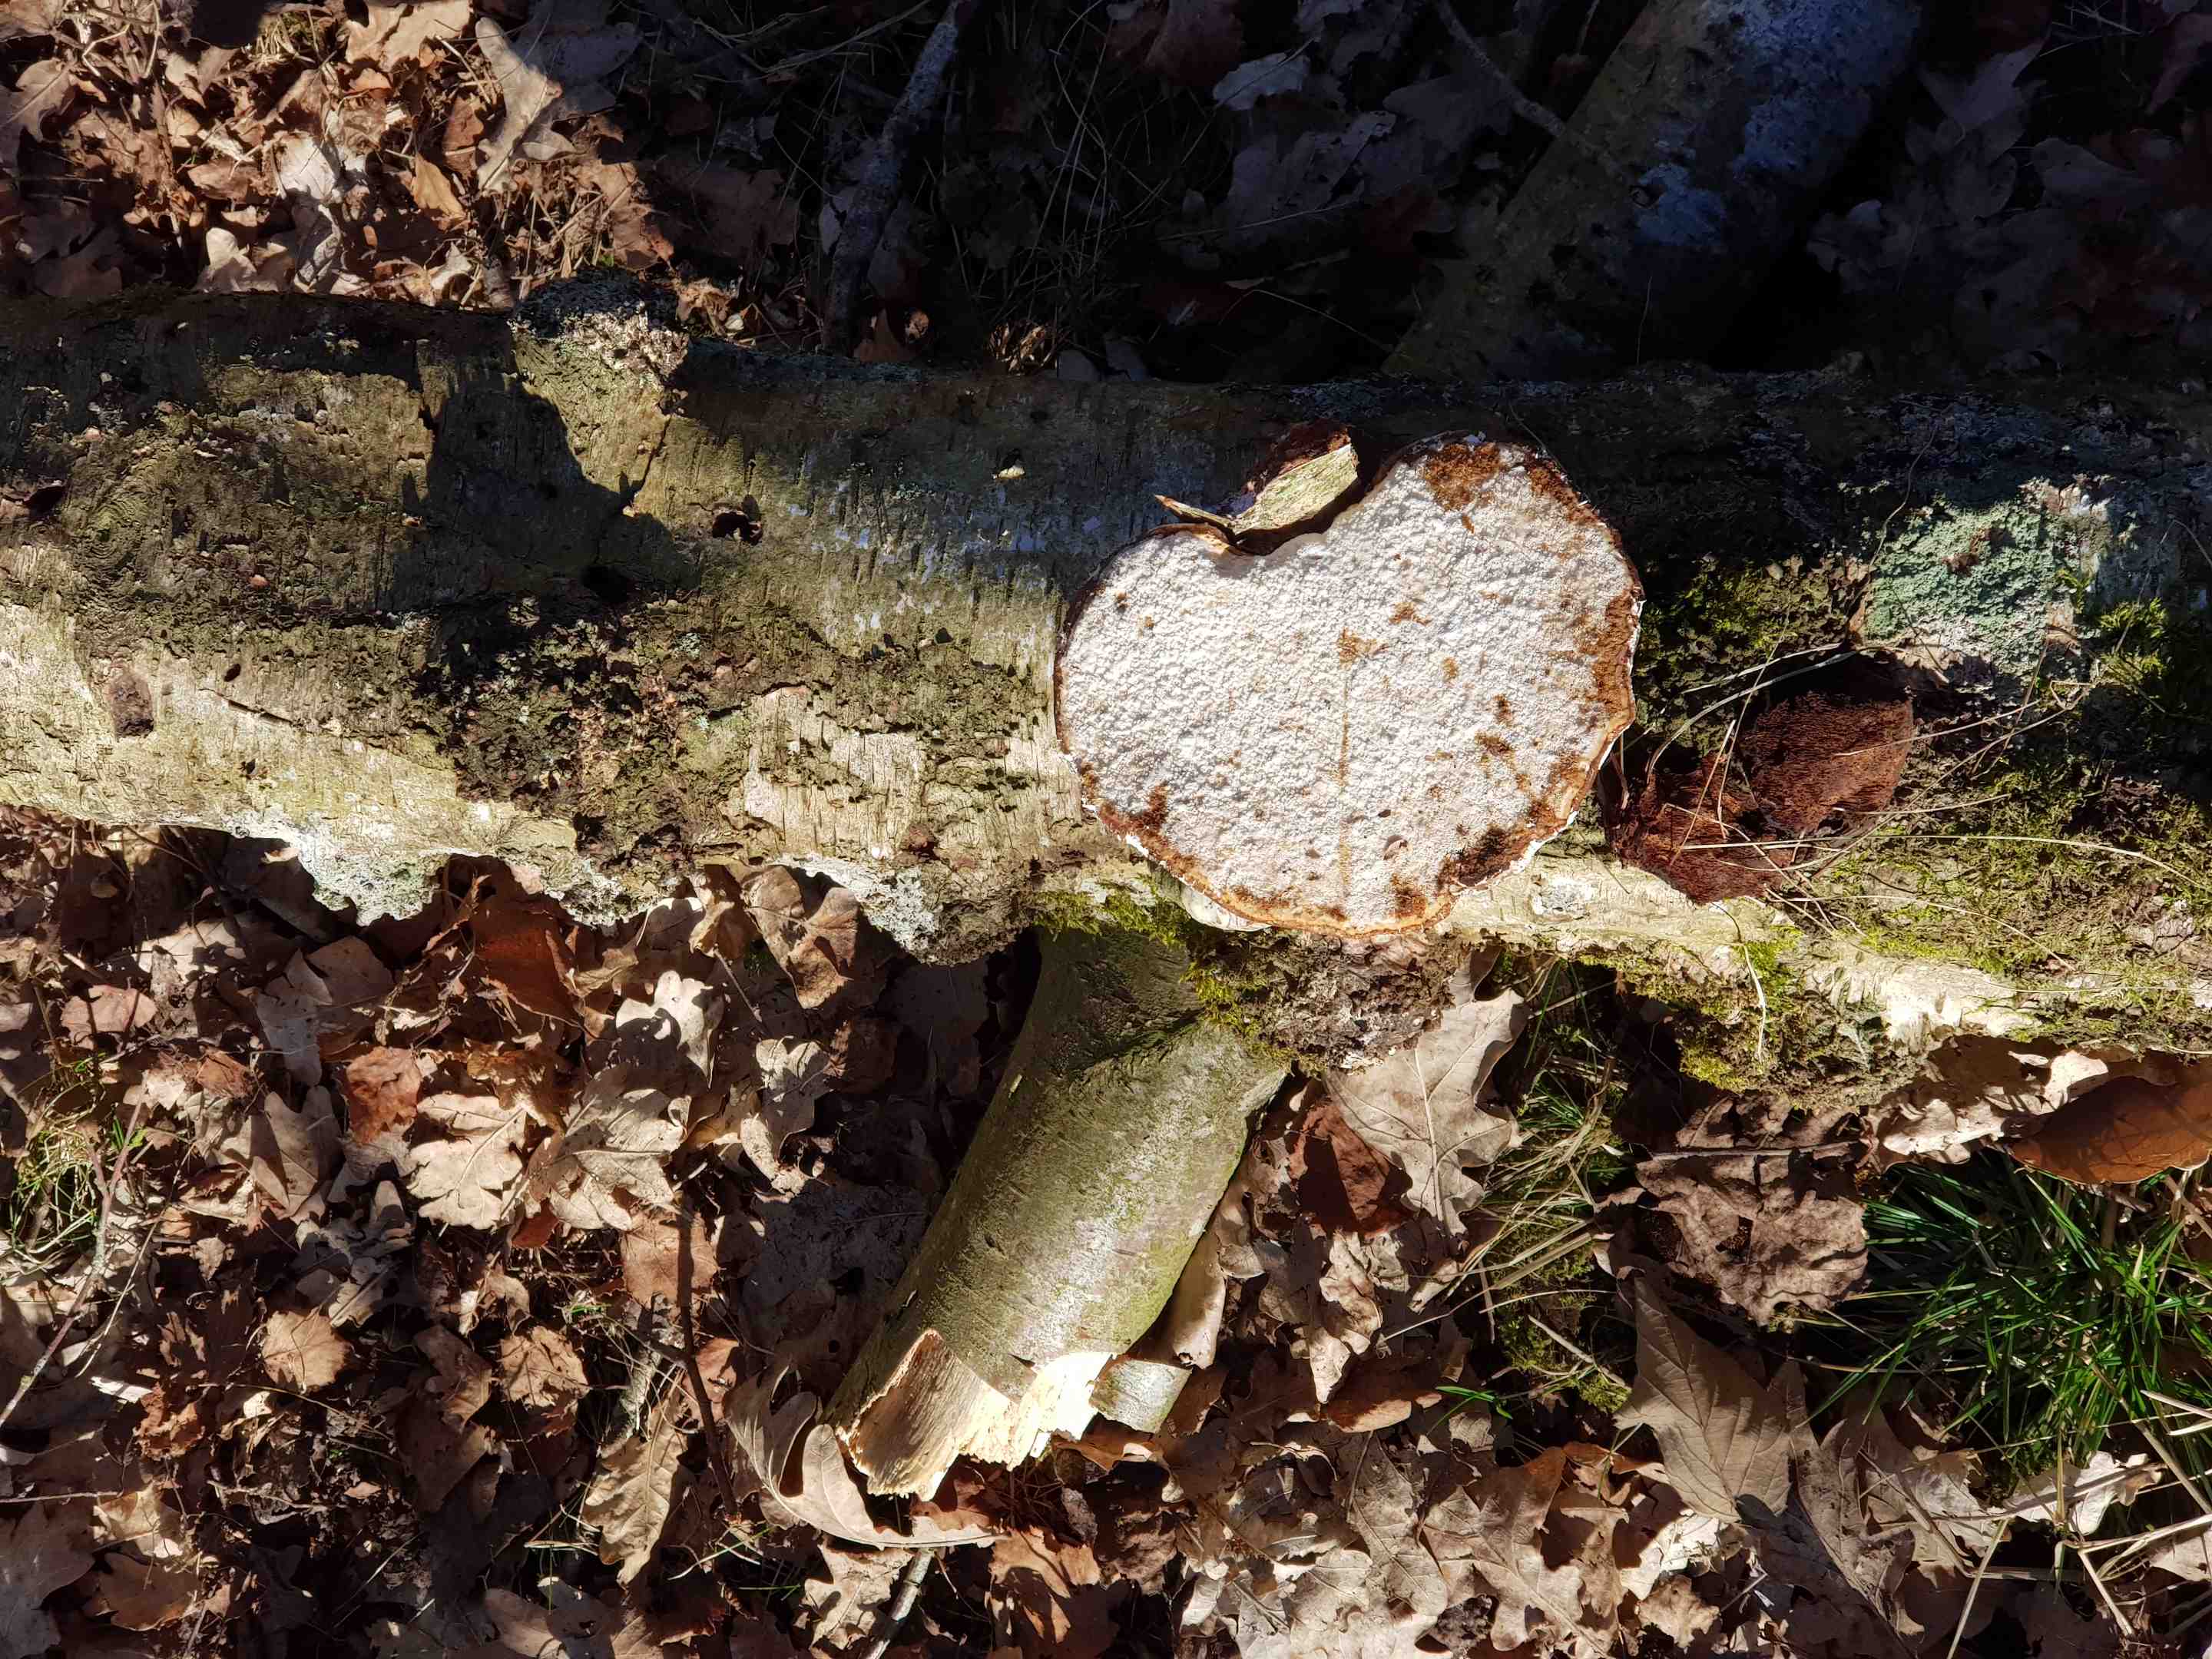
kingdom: Fungi
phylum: Basidiomycota
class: Agaricomycetes
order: Polyporales
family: Fomitopsidaceae
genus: Fomitopsis
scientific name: Fomitopsis betulina
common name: birkeporesvamp
